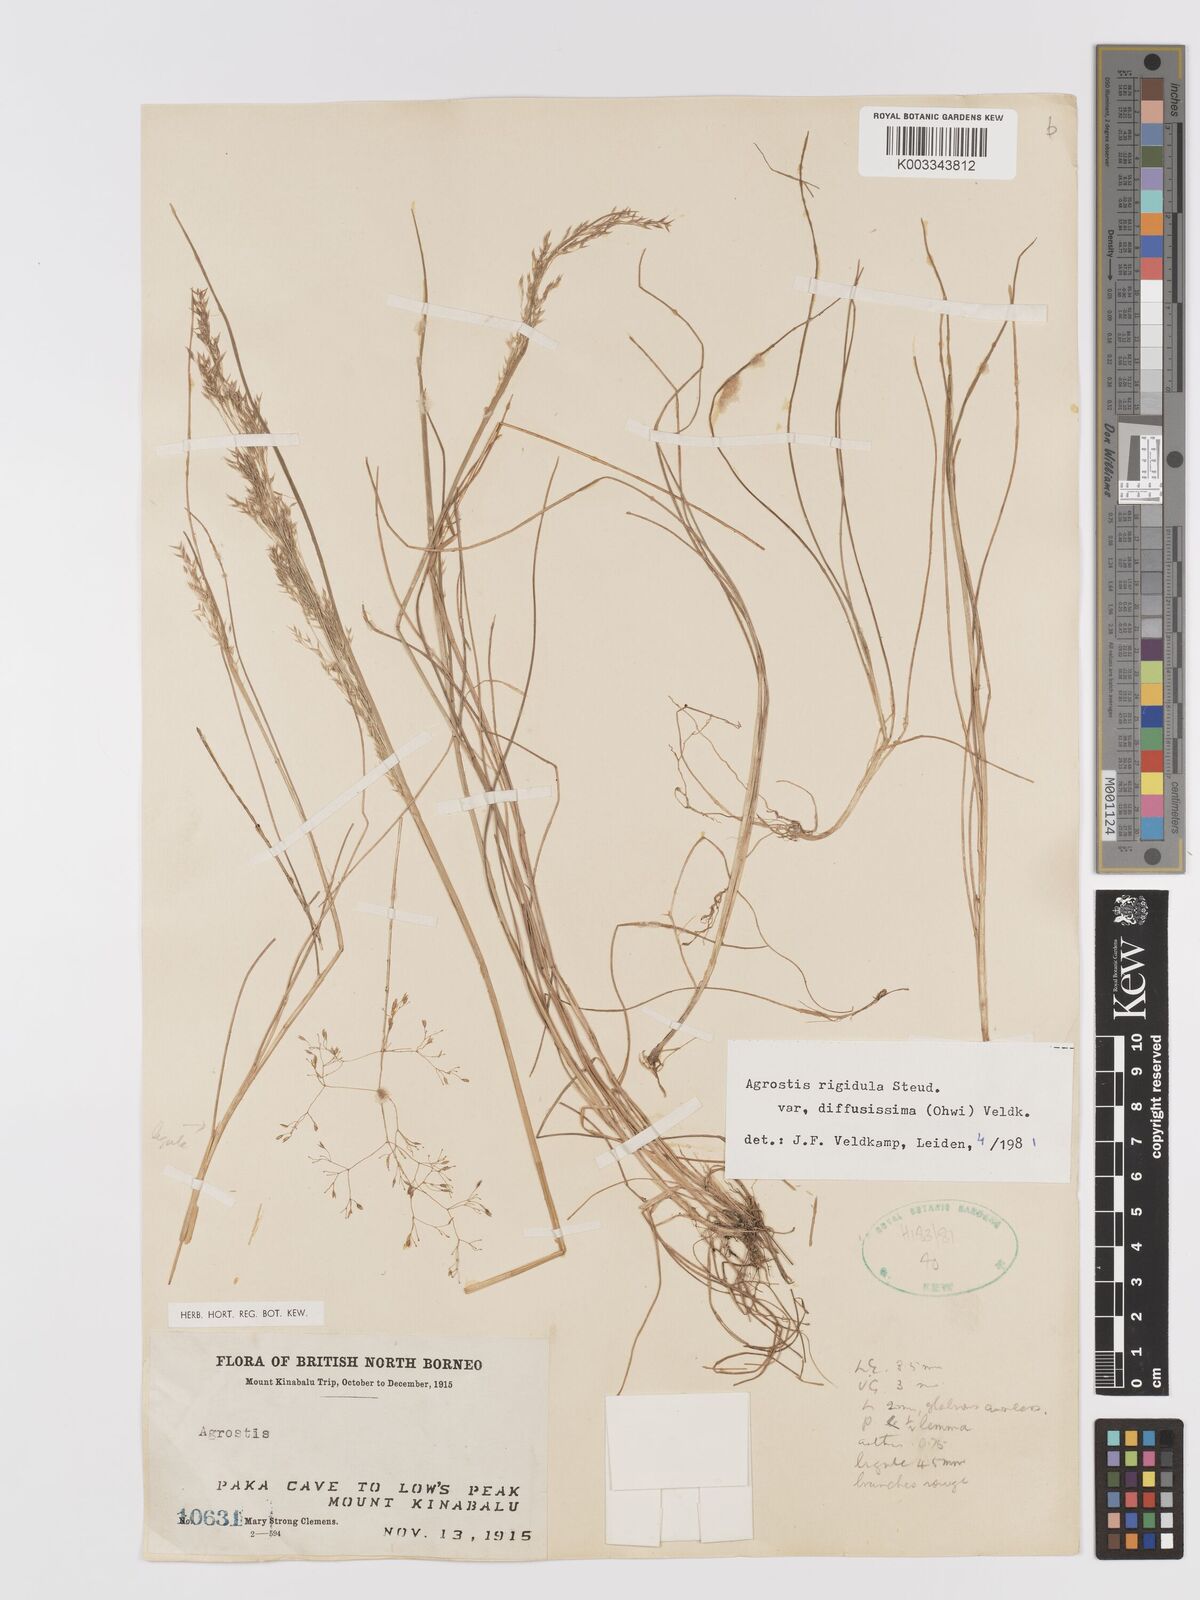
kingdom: Plantae
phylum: Tracheophyta
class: Liliopsida
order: Poales
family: Poaceae
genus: Agrostis
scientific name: Agrostis infirma
